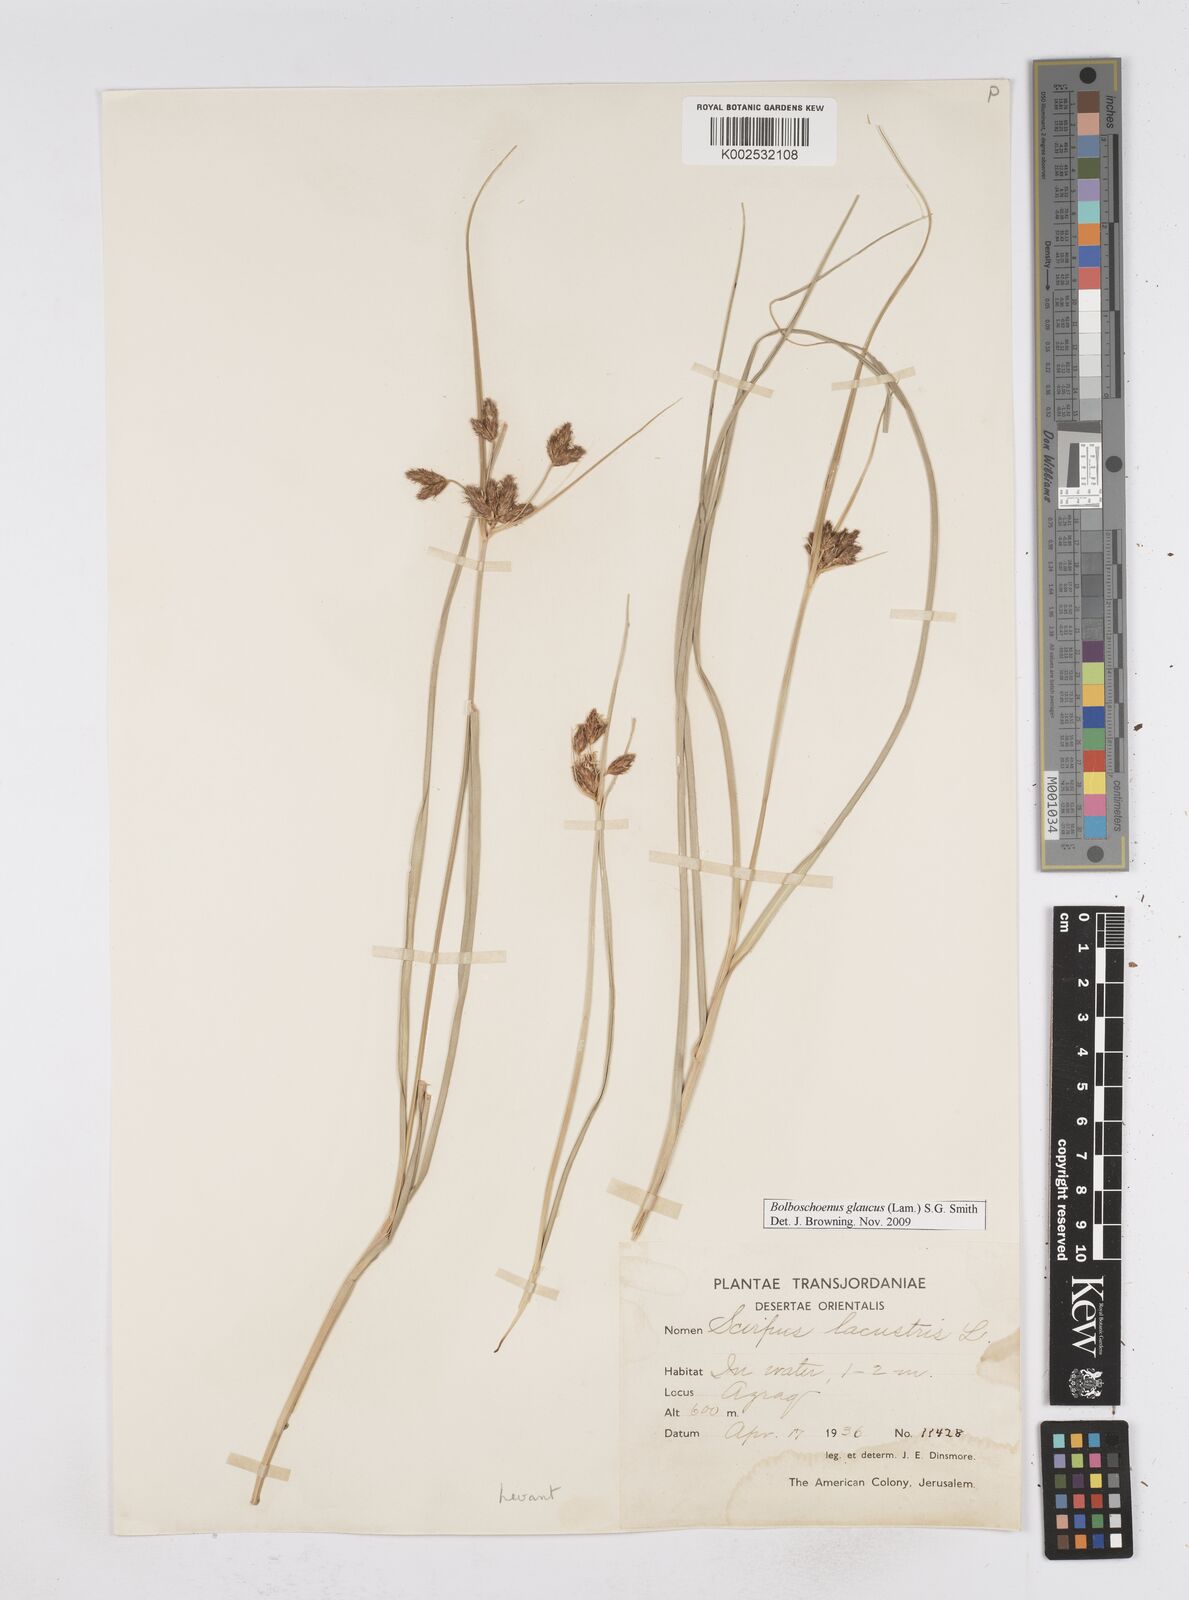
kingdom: Plantae
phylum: Tracheophyta
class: Liliopsida
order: Poales
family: Cyperaceae
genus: Bolboschoenus
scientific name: Bolboschoenus maritimus
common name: Sea club-rush
